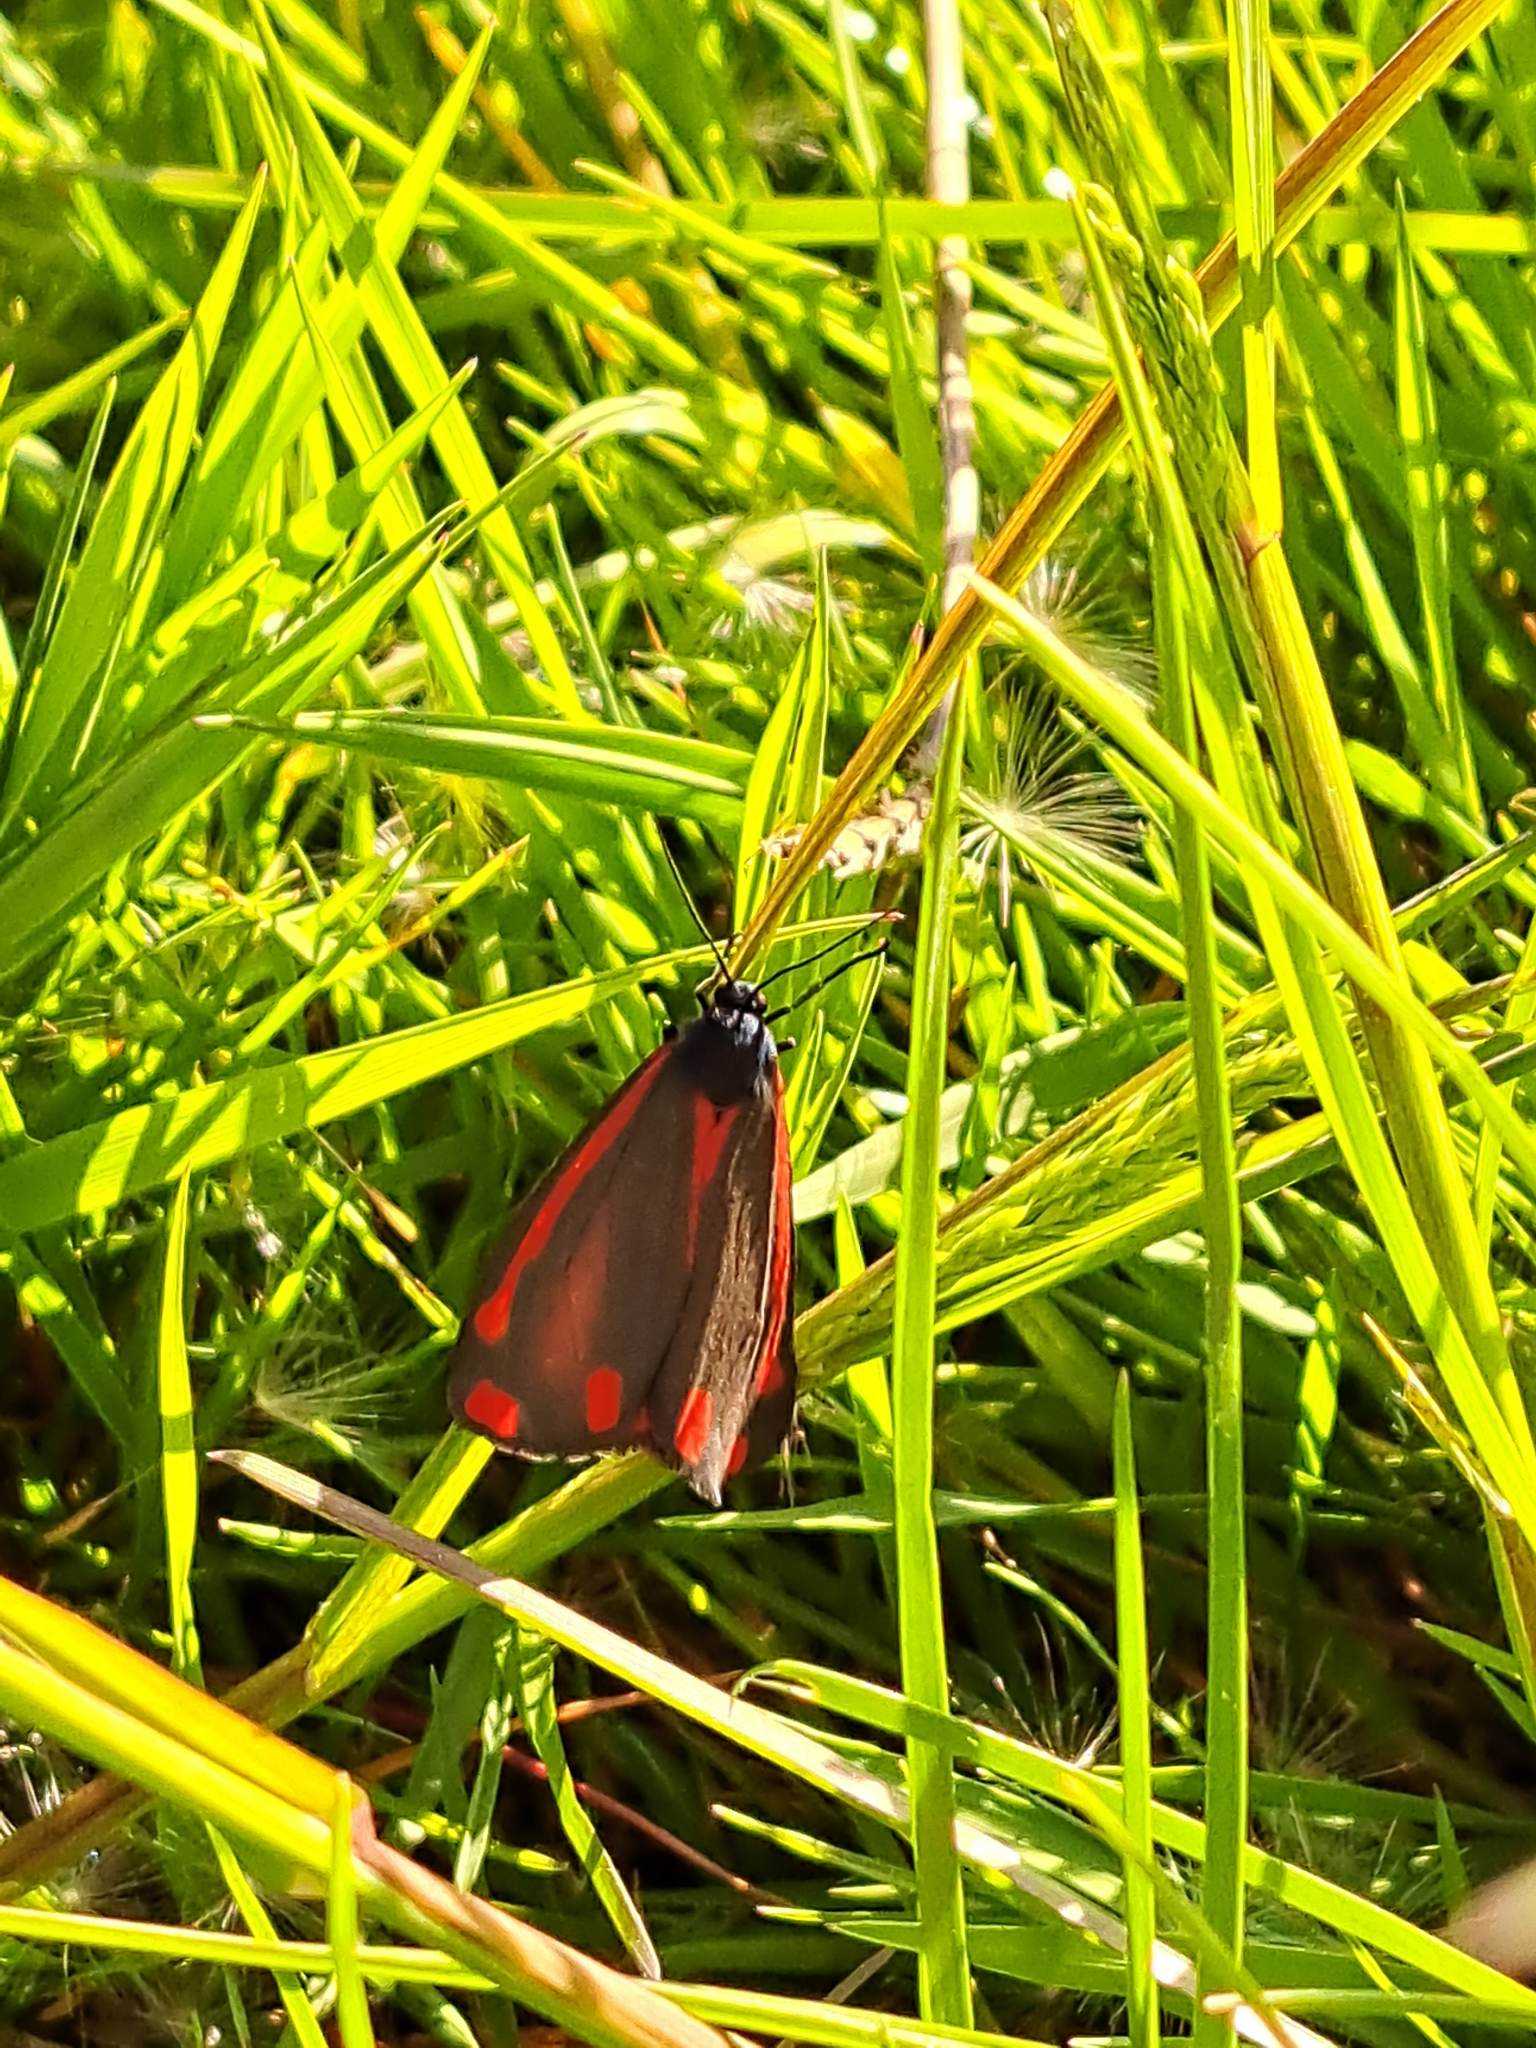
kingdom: Animalia
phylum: Arthropoda
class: Insecta
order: Lepidoptera
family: Erebidae
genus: Tyria
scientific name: Tyria jacobaeae
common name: Blodplet
